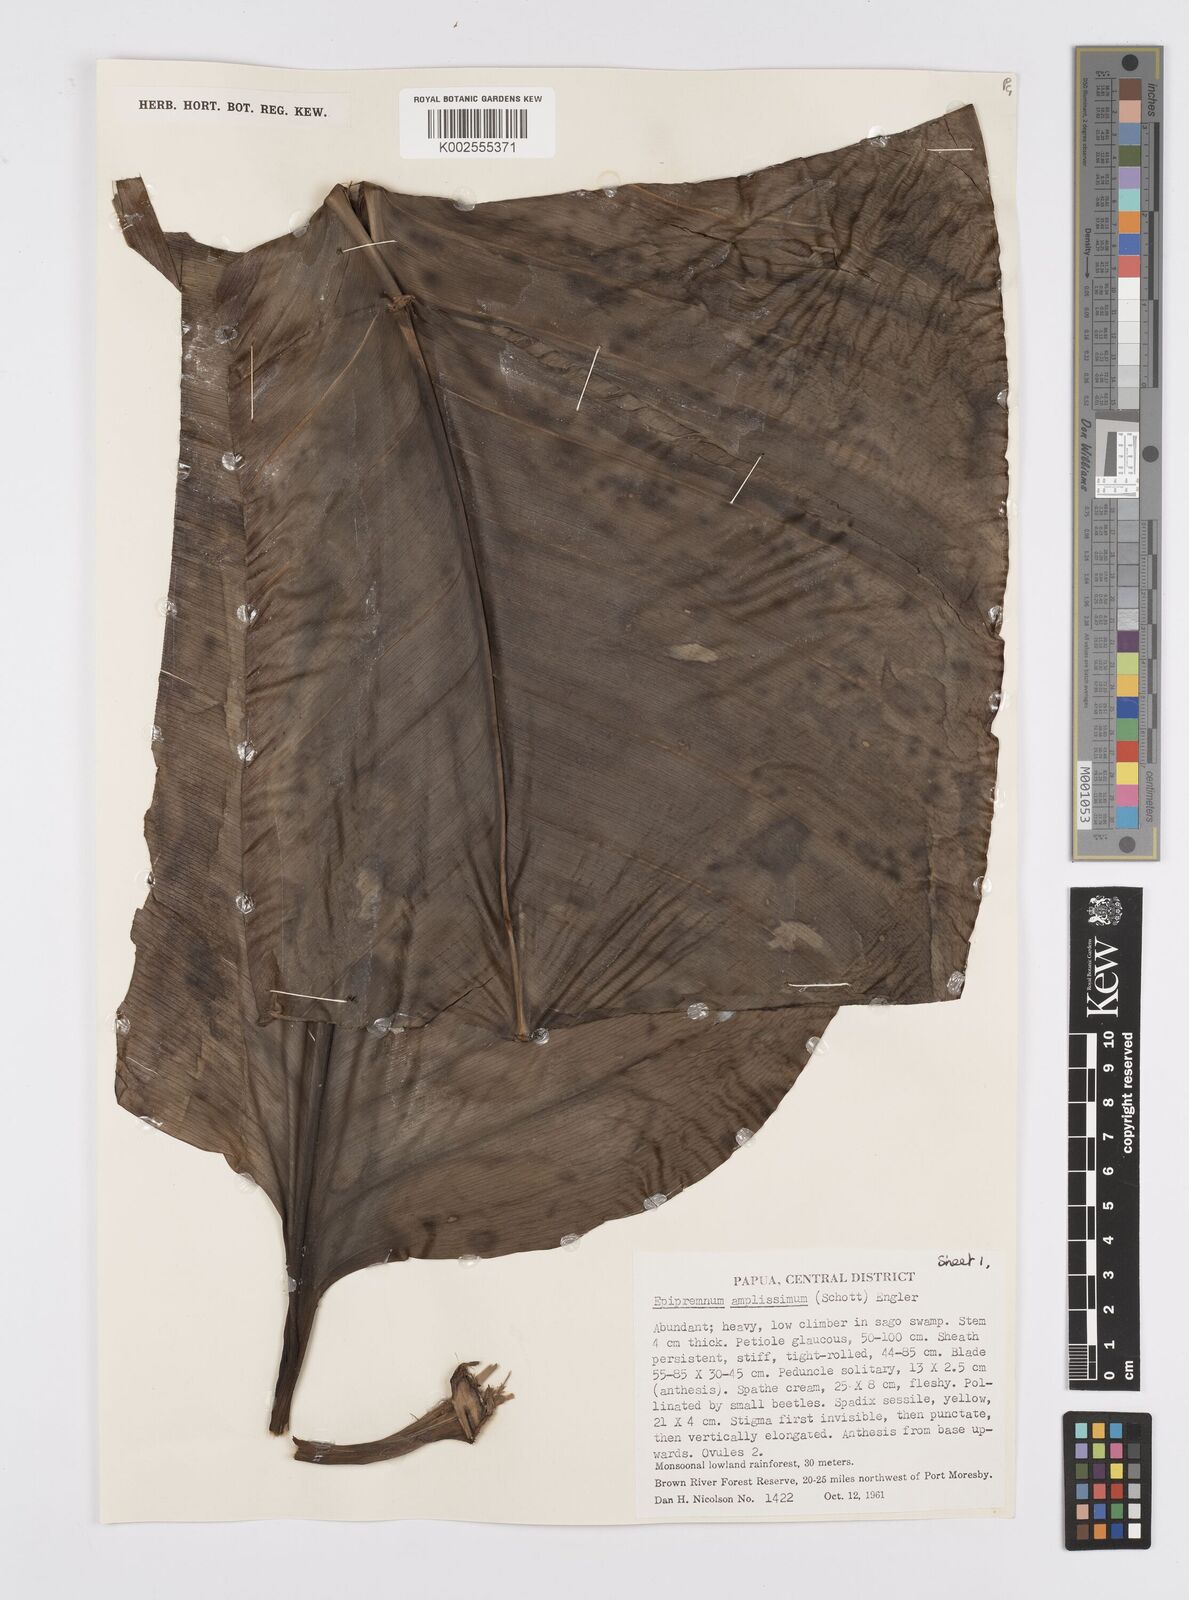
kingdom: Plantae
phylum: Tracheophyta
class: Liliopsida
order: Alismatales
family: Araceae
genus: Epipremnum
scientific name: Epipremnum amplissimum
